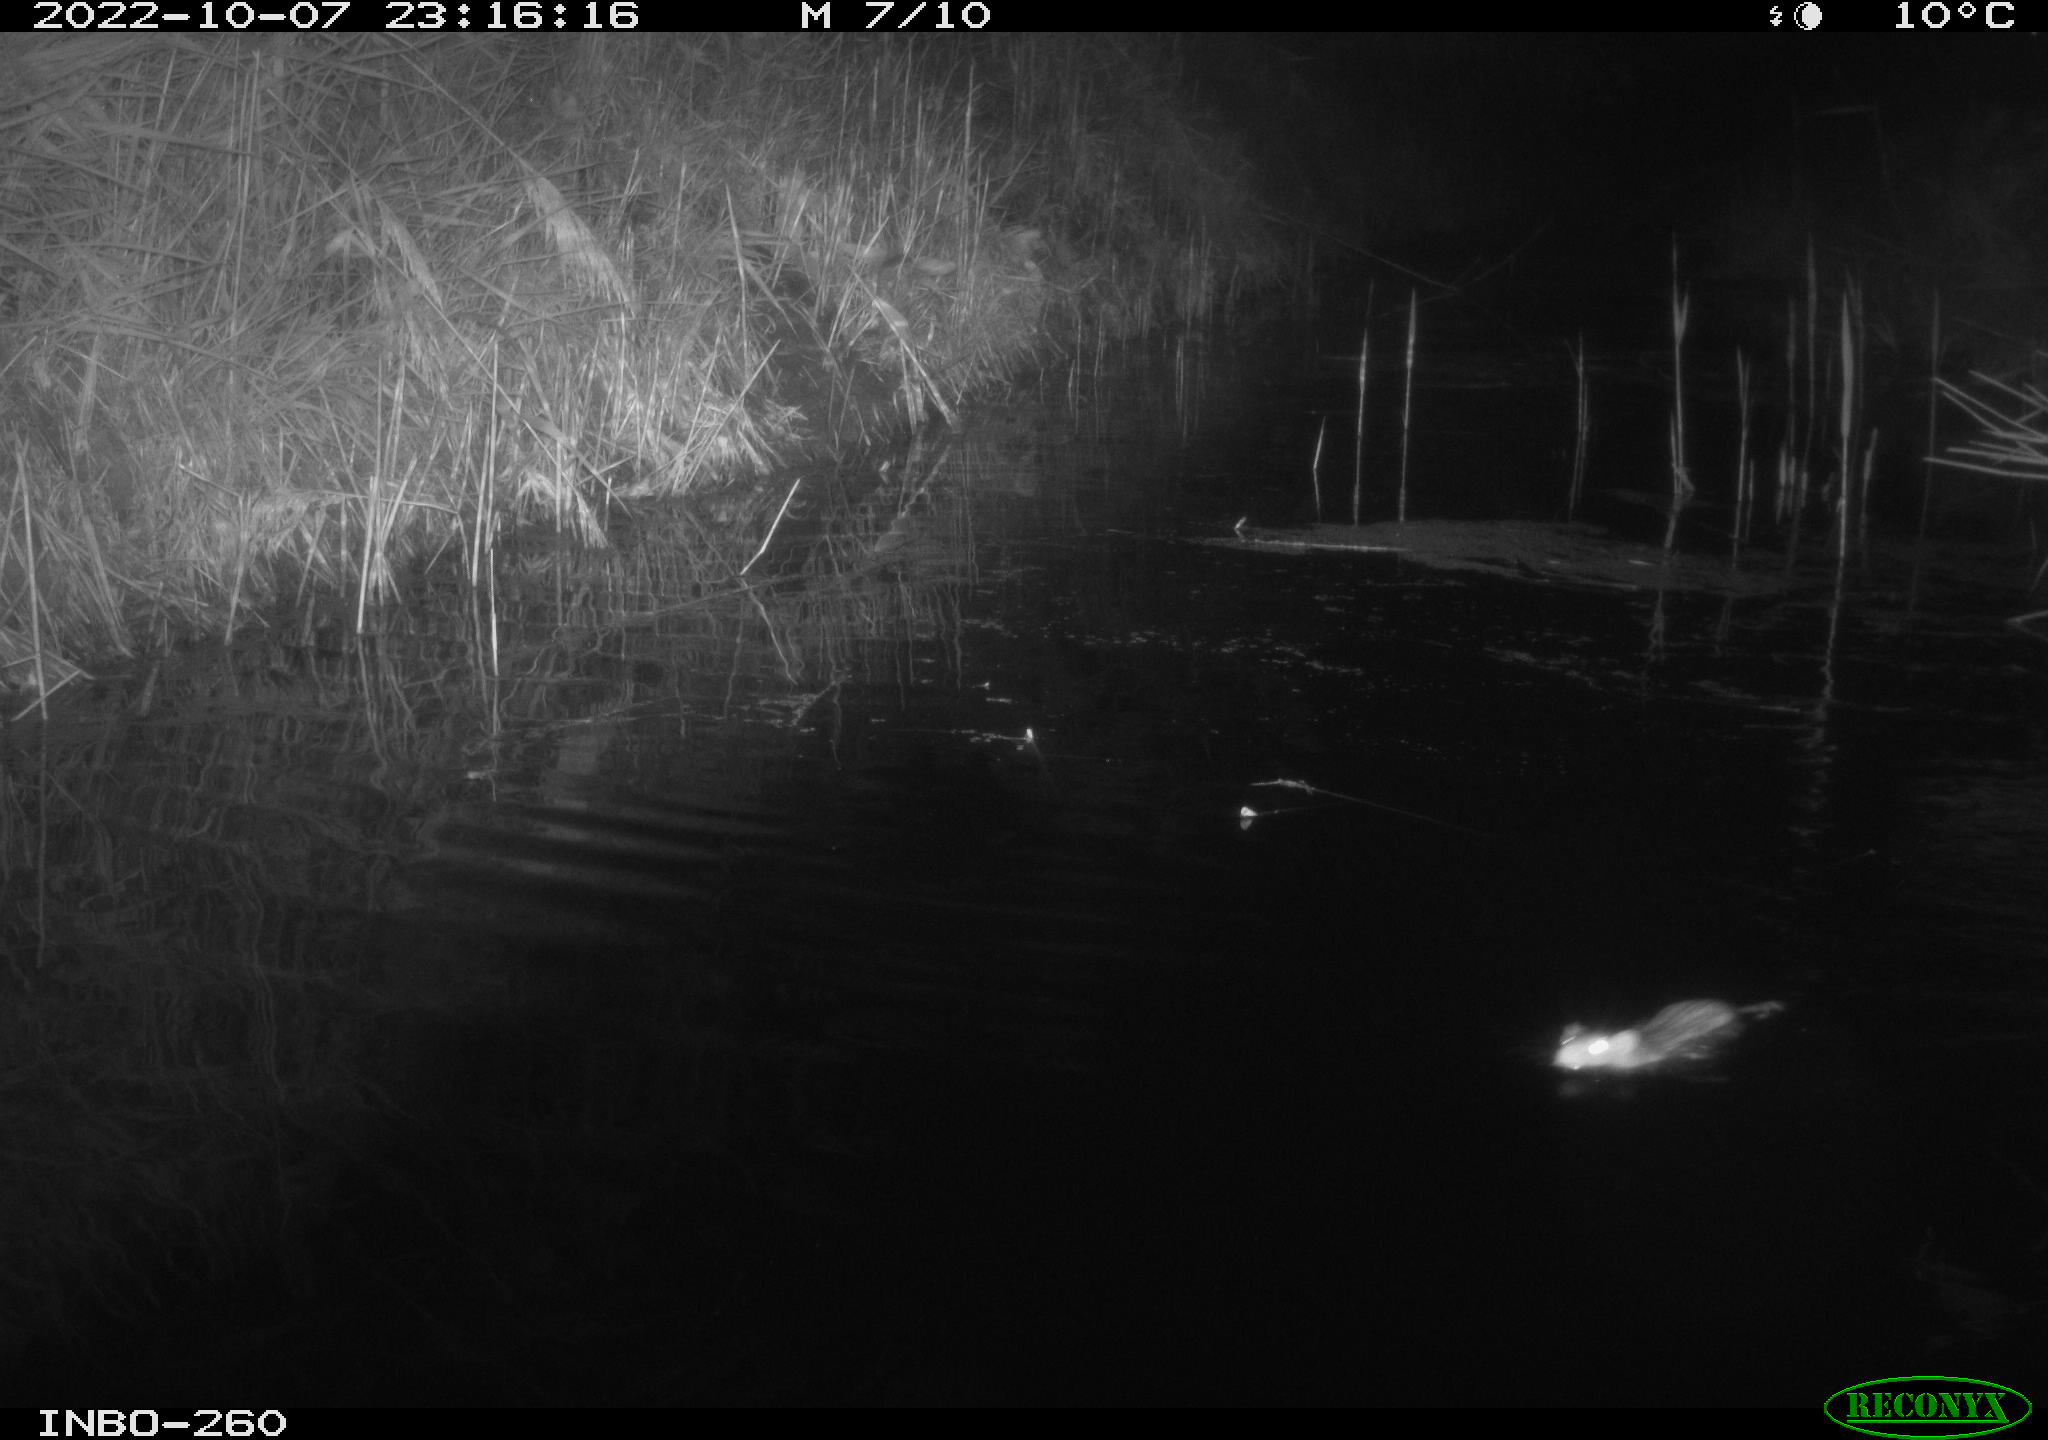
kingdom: Animalia
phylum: Chordata
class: Mammalia
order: Rodentia
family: Muridae
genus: Rattus
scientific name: Rattus norvegicus
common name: Brown rat
